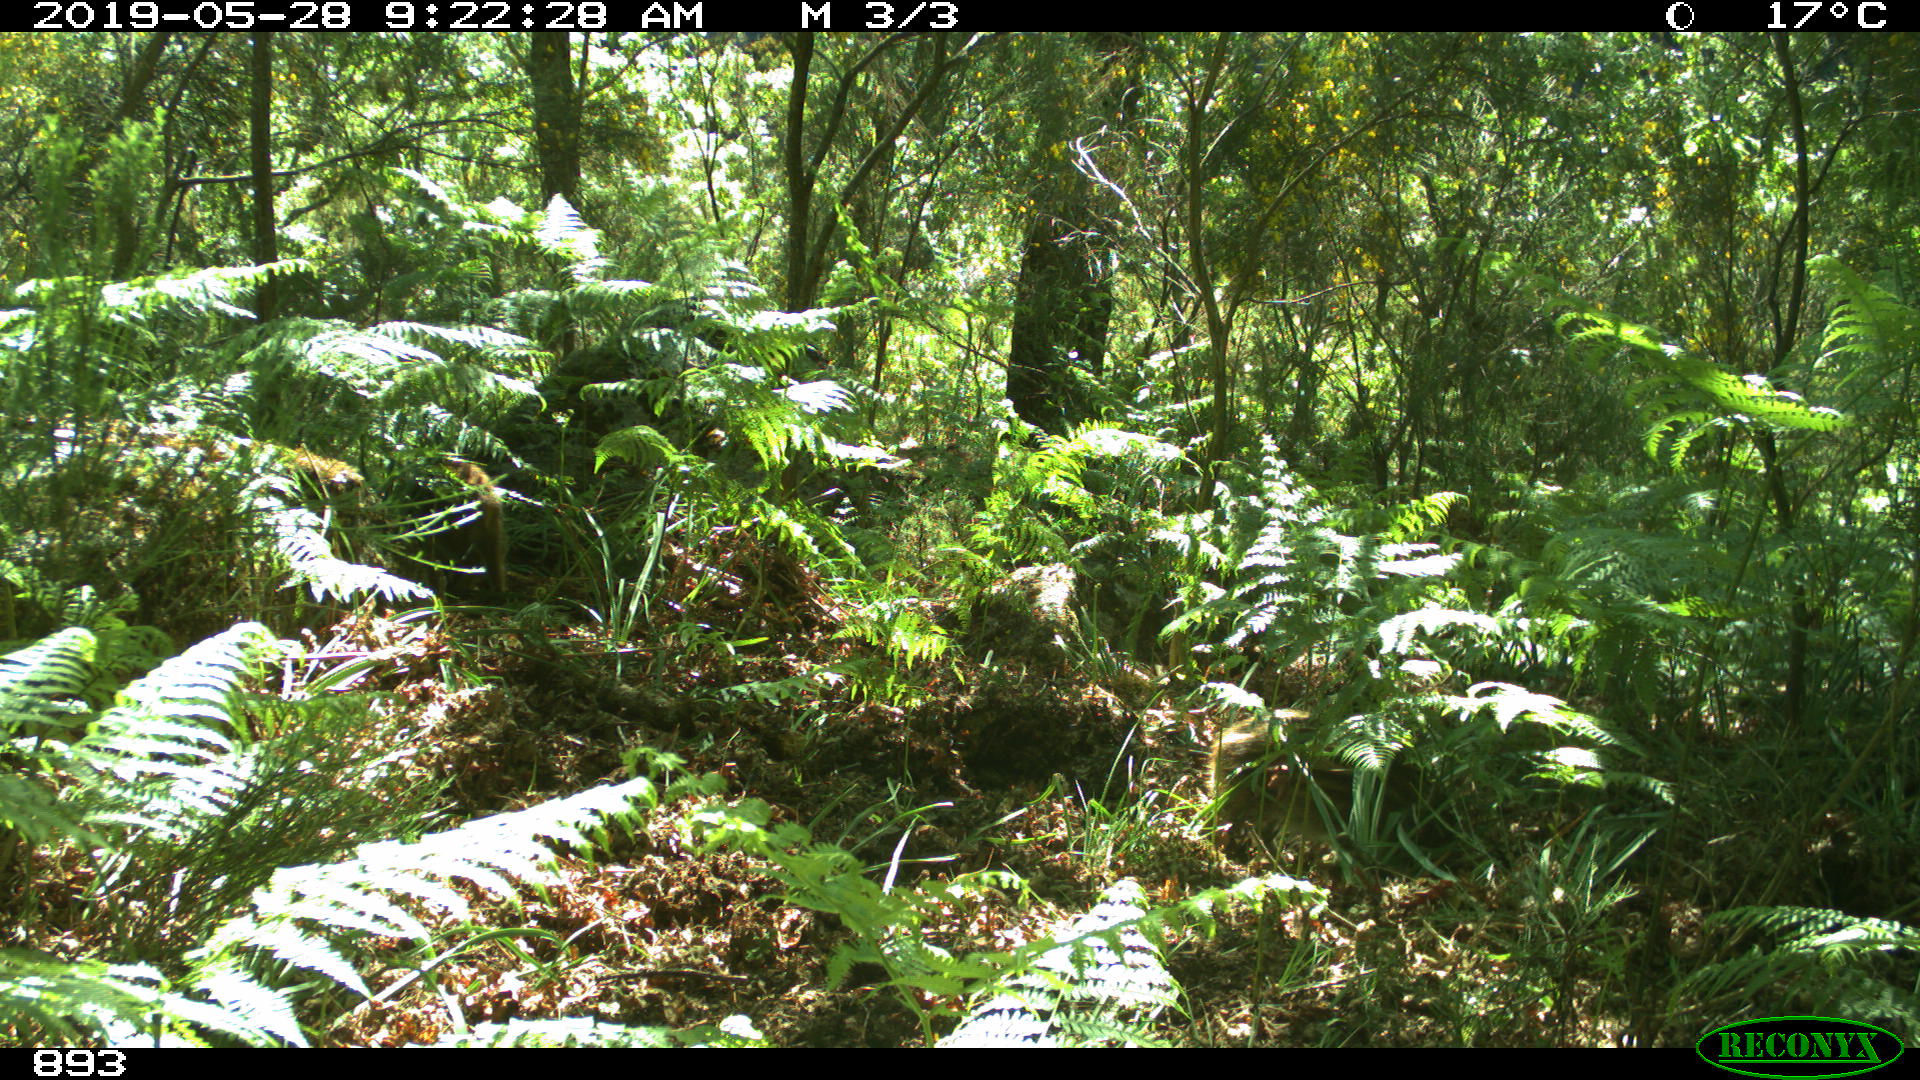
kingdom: Animalia
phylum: Chordata
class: Mammalia
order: Artiodactyla
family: Suidae
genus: Sus
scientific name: Sus scrofa
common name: Wild boar
